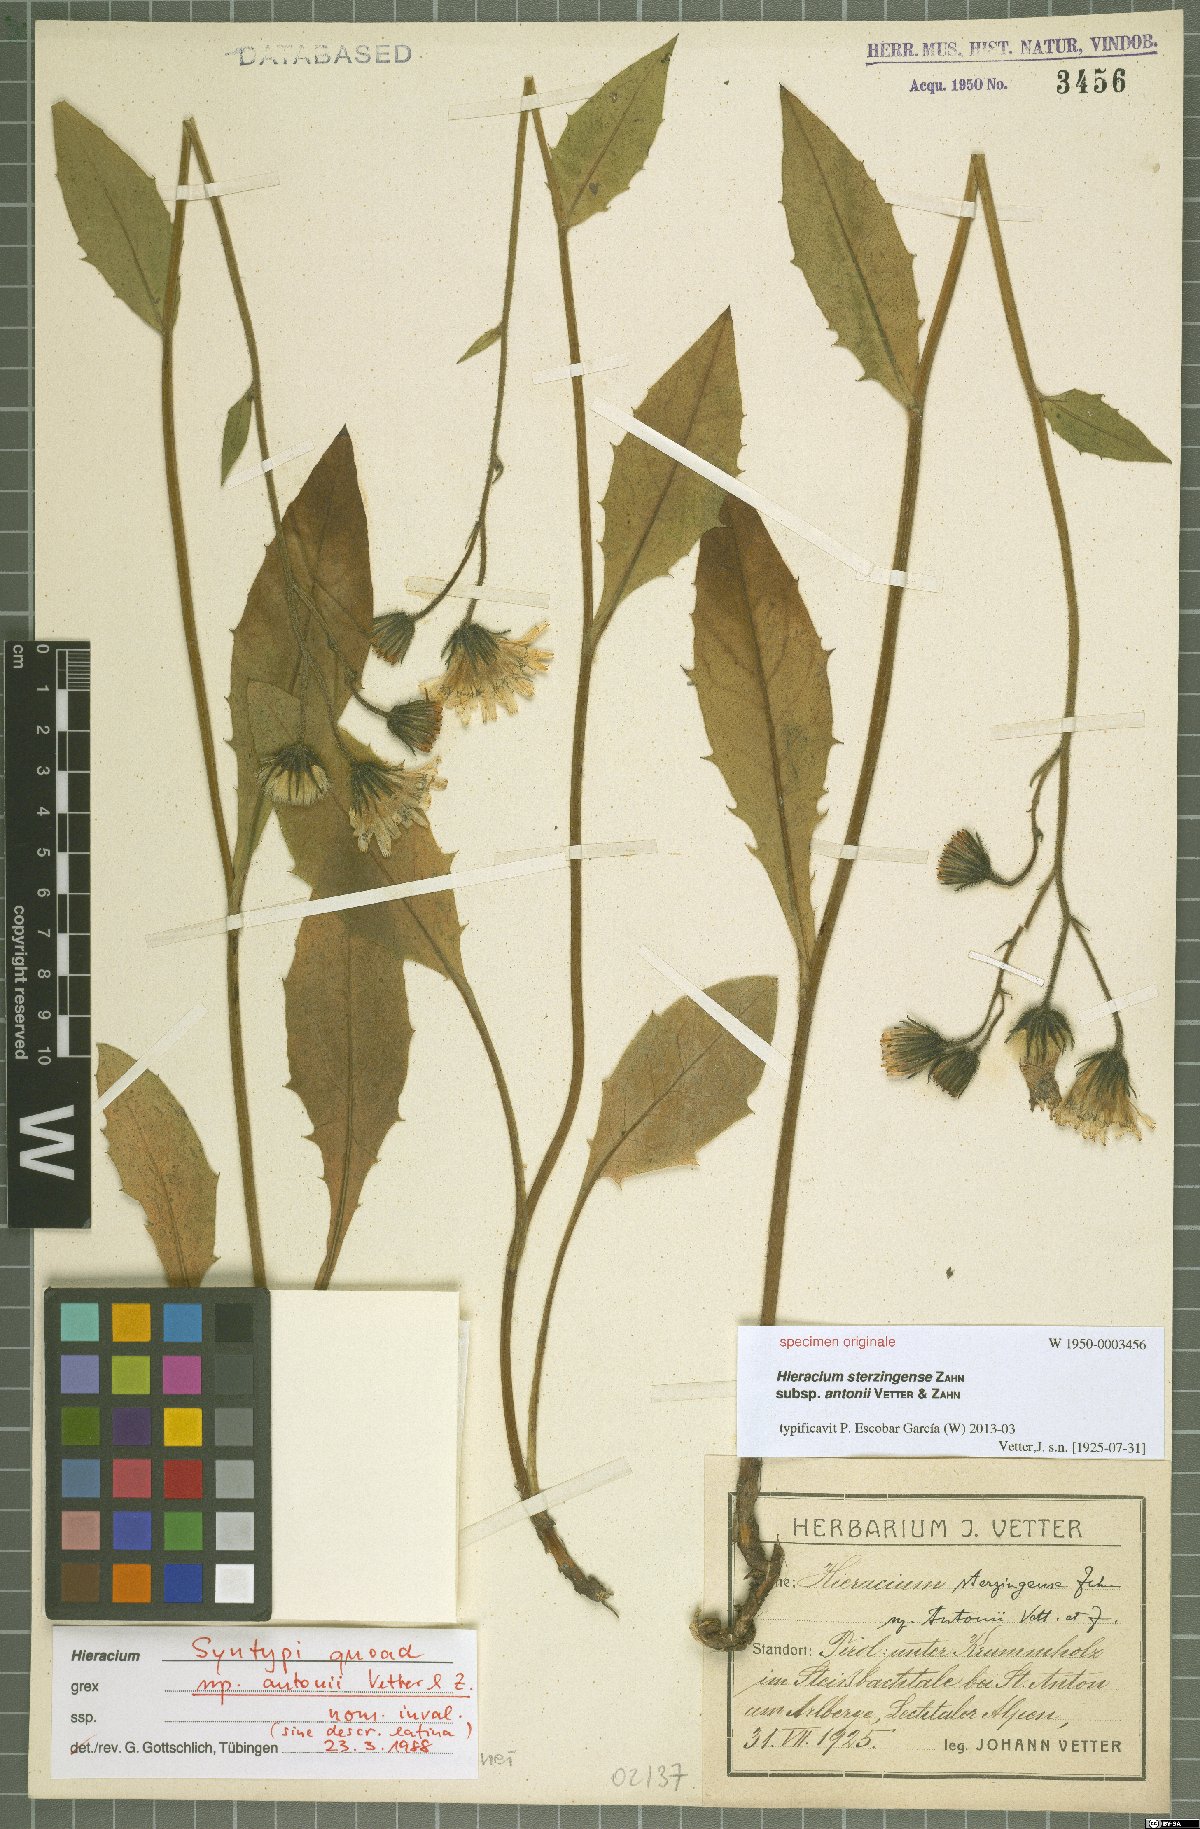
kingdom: Plantae
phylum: Tracheophyta
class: Magnoliopsida
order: Asterales
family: Asteraceae
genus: Hieracium
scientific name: Hieracium sterzingense
